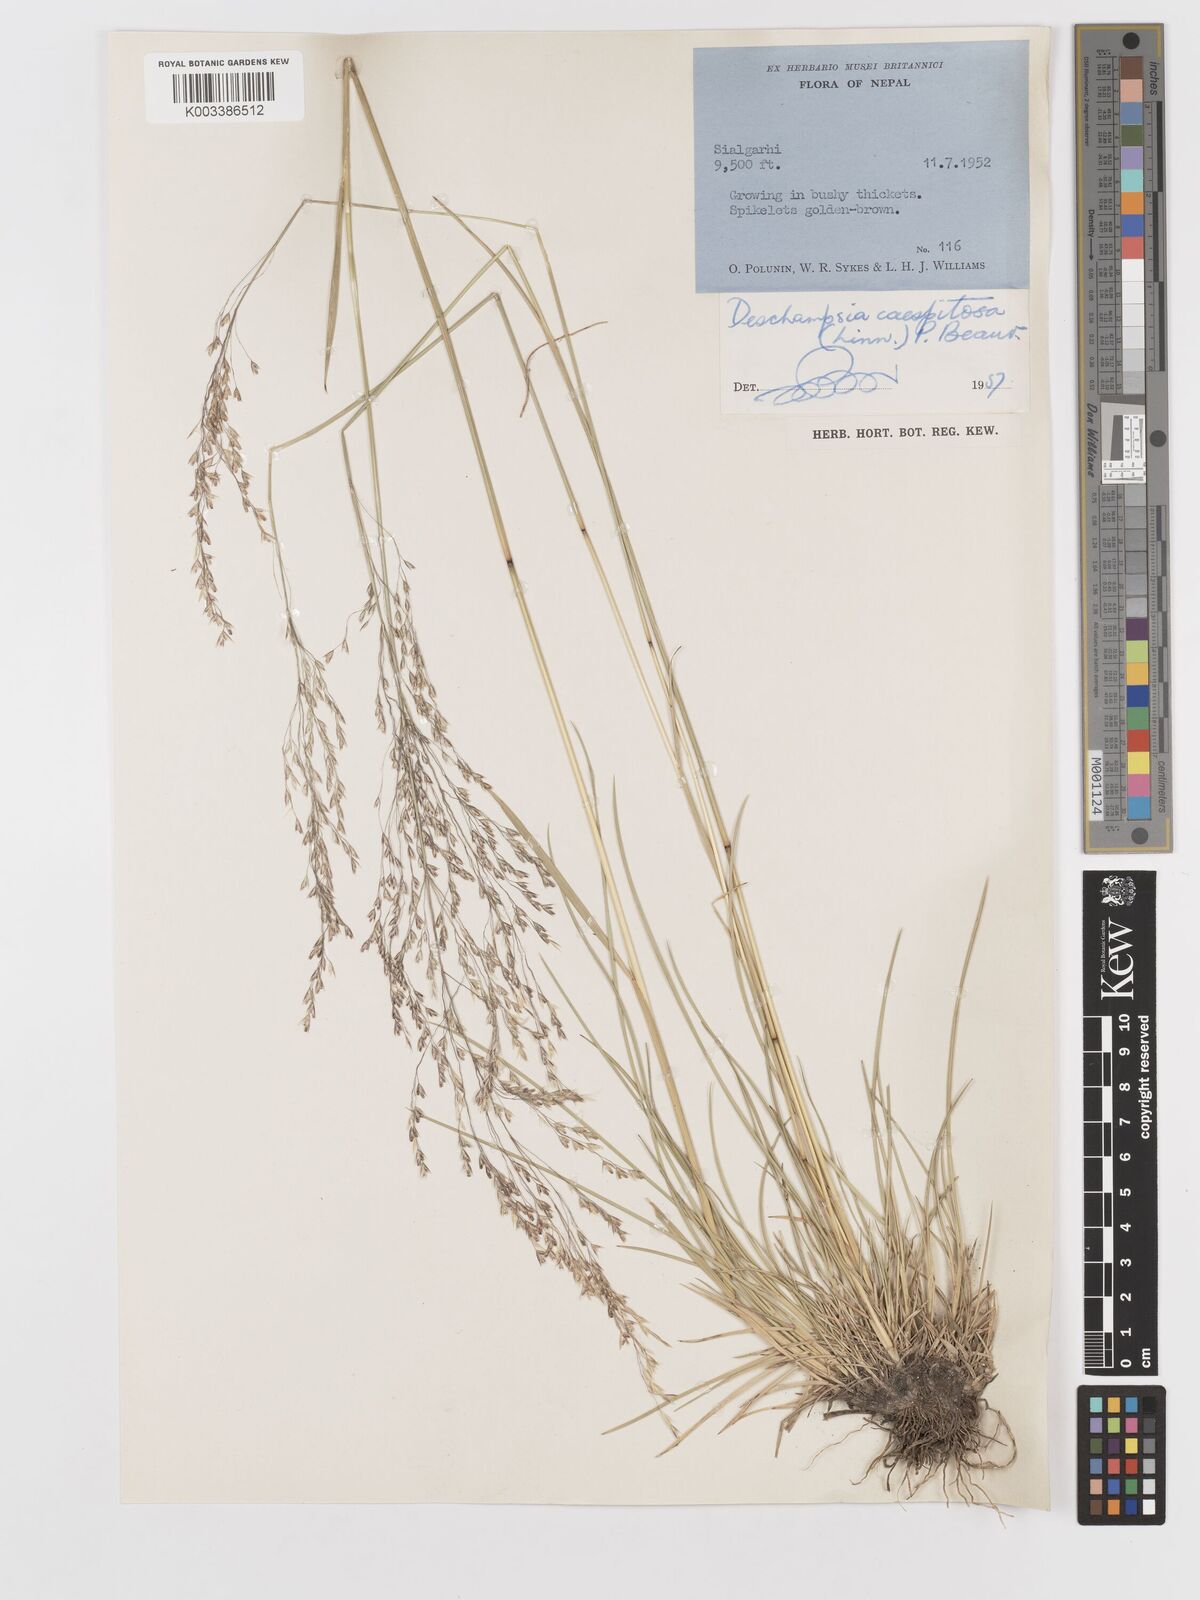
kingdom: Plantae
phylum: Tracheophyta
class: Liliopsida
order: Poales
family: Poaceae
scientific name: Poaceae
